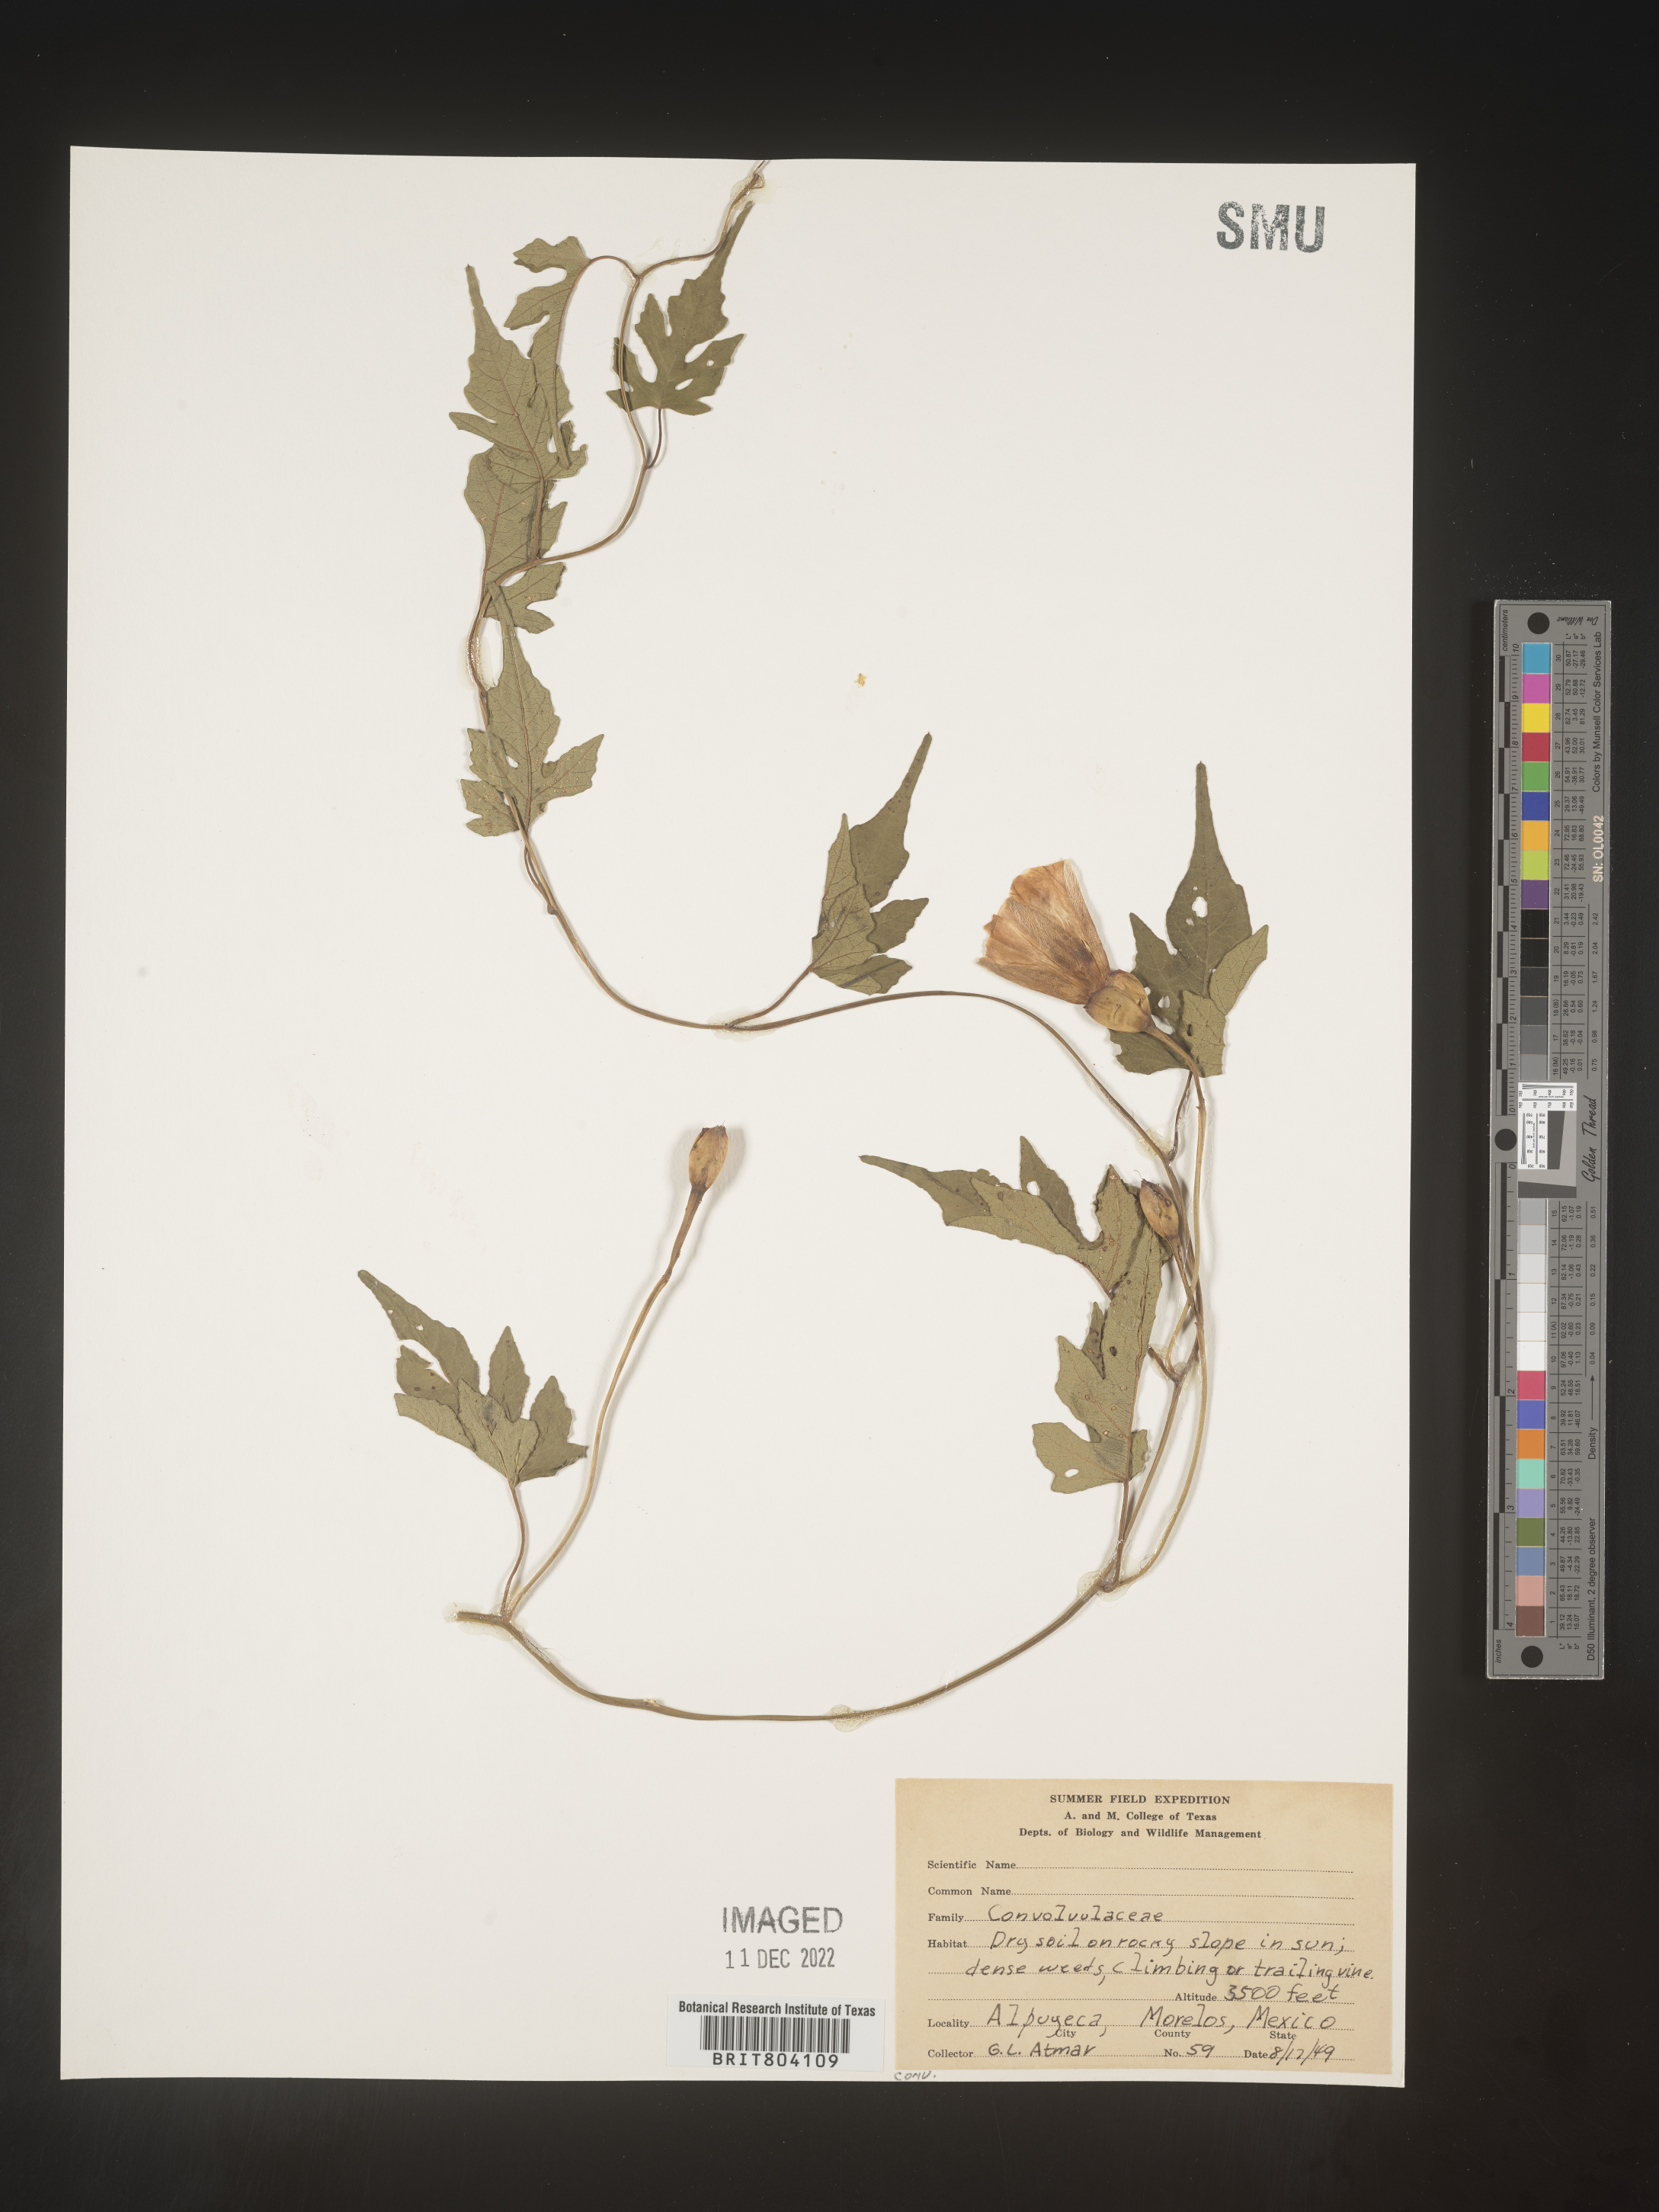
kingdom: Plantae
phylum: Tracheophyta
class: Magnoliopsida
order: Solanales
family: Convolvulaceae
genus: Convolvulus
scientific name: Convolvulus
